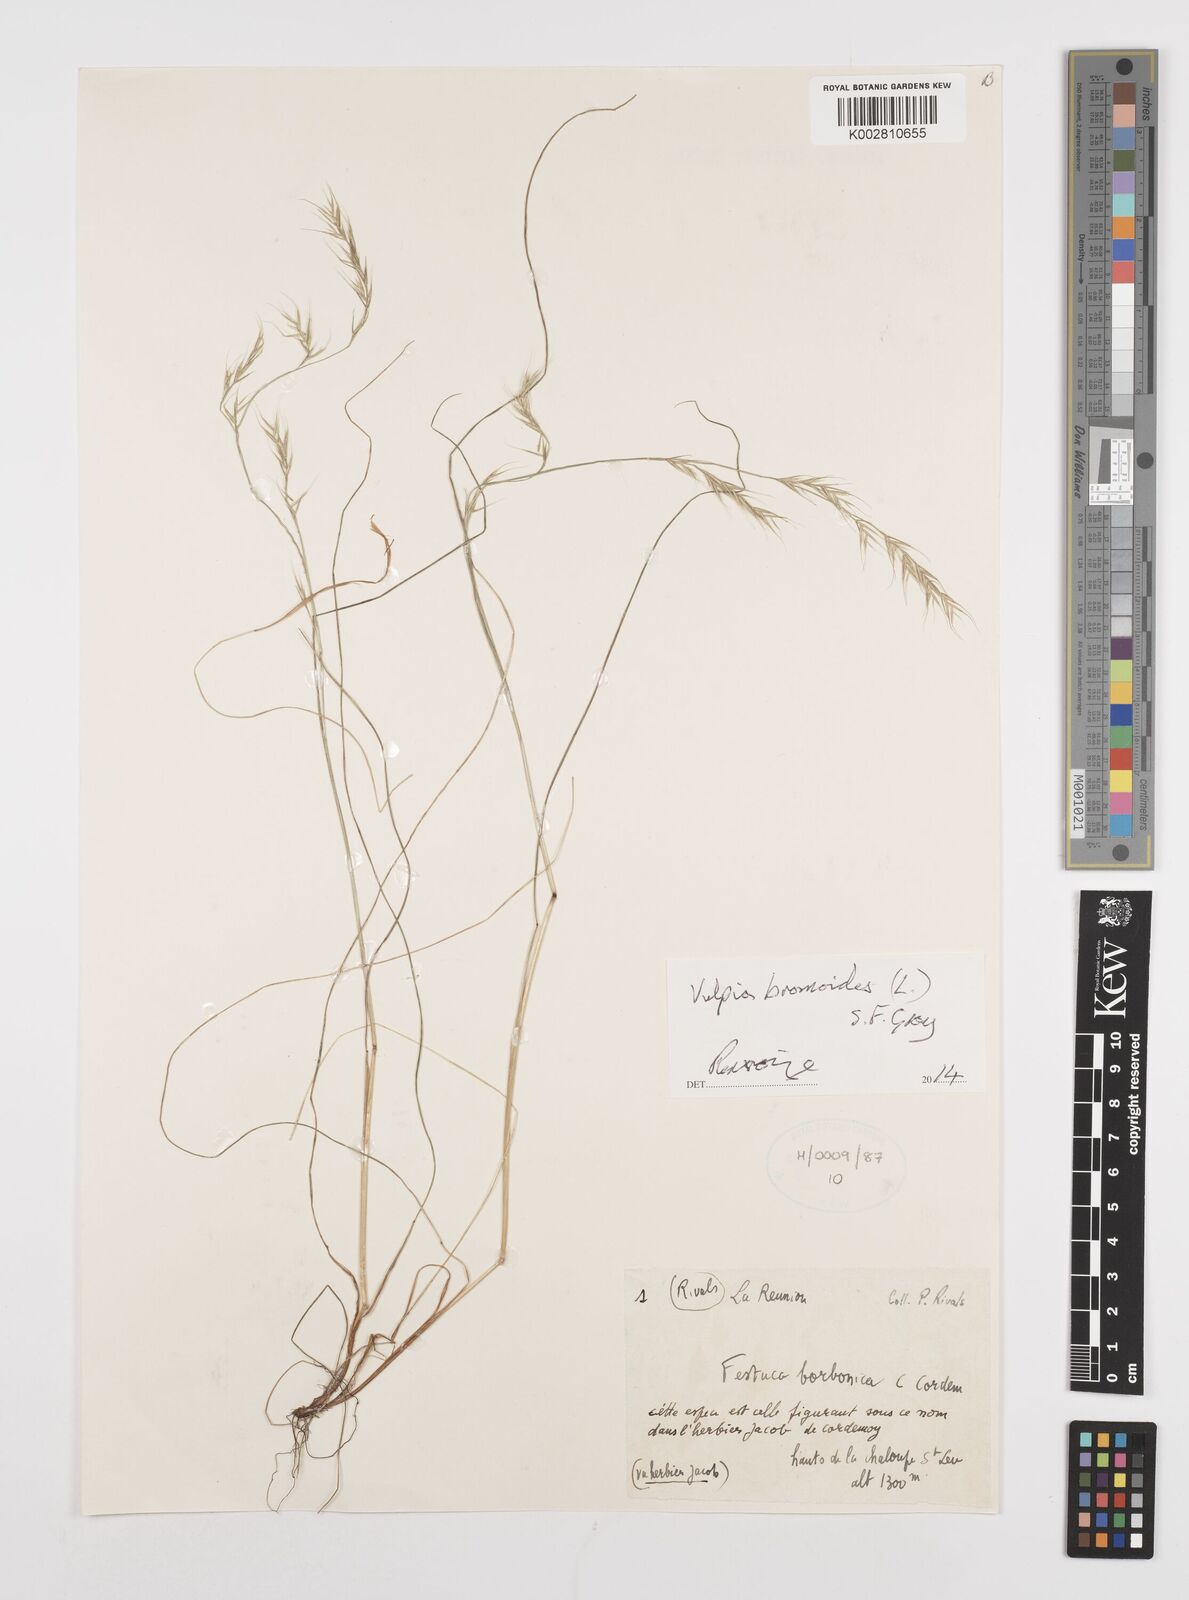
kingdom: Plantae
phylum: Tracheophyta
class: Liliopsida
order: Poales
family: Poaceae
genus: Festuca
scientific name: Festuca bromoides
